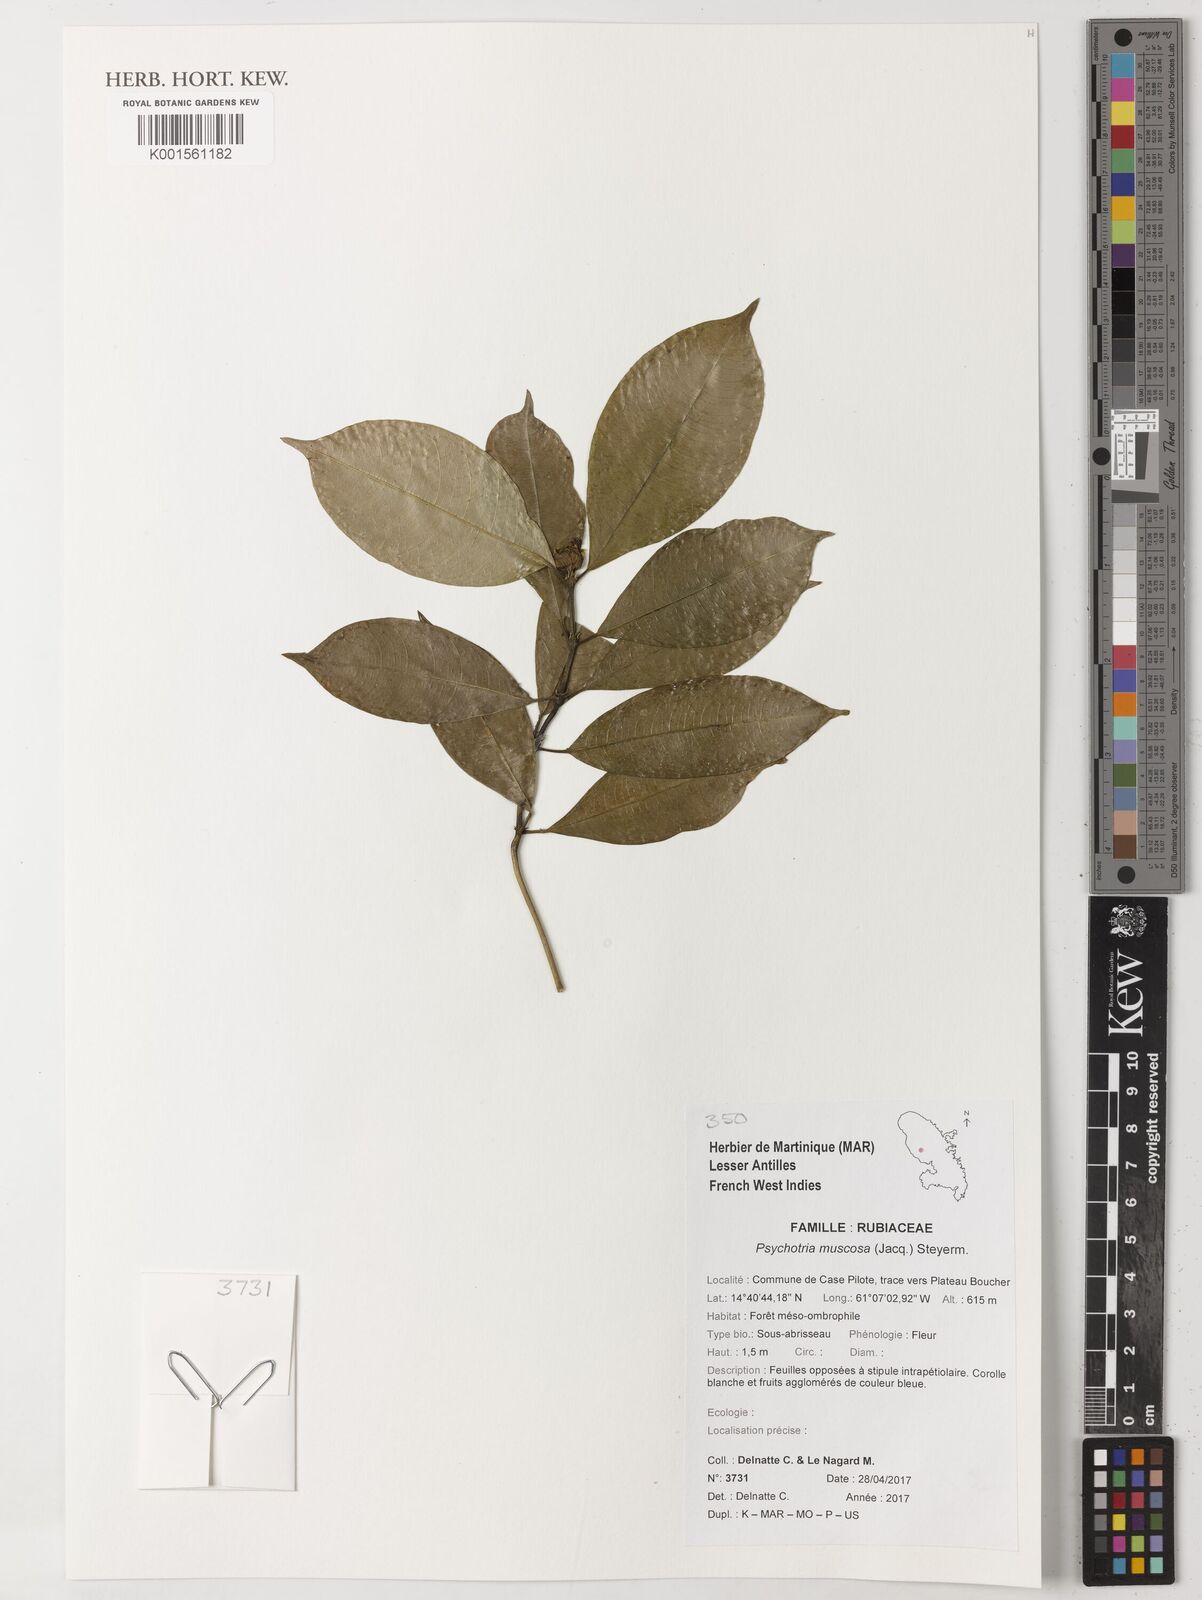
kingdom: Plantae
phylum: Tracheophyta
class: Magnoliopsida
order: Gentianales
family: Rubiaceae
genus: Palicourea
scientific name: Palicourea muscosa
